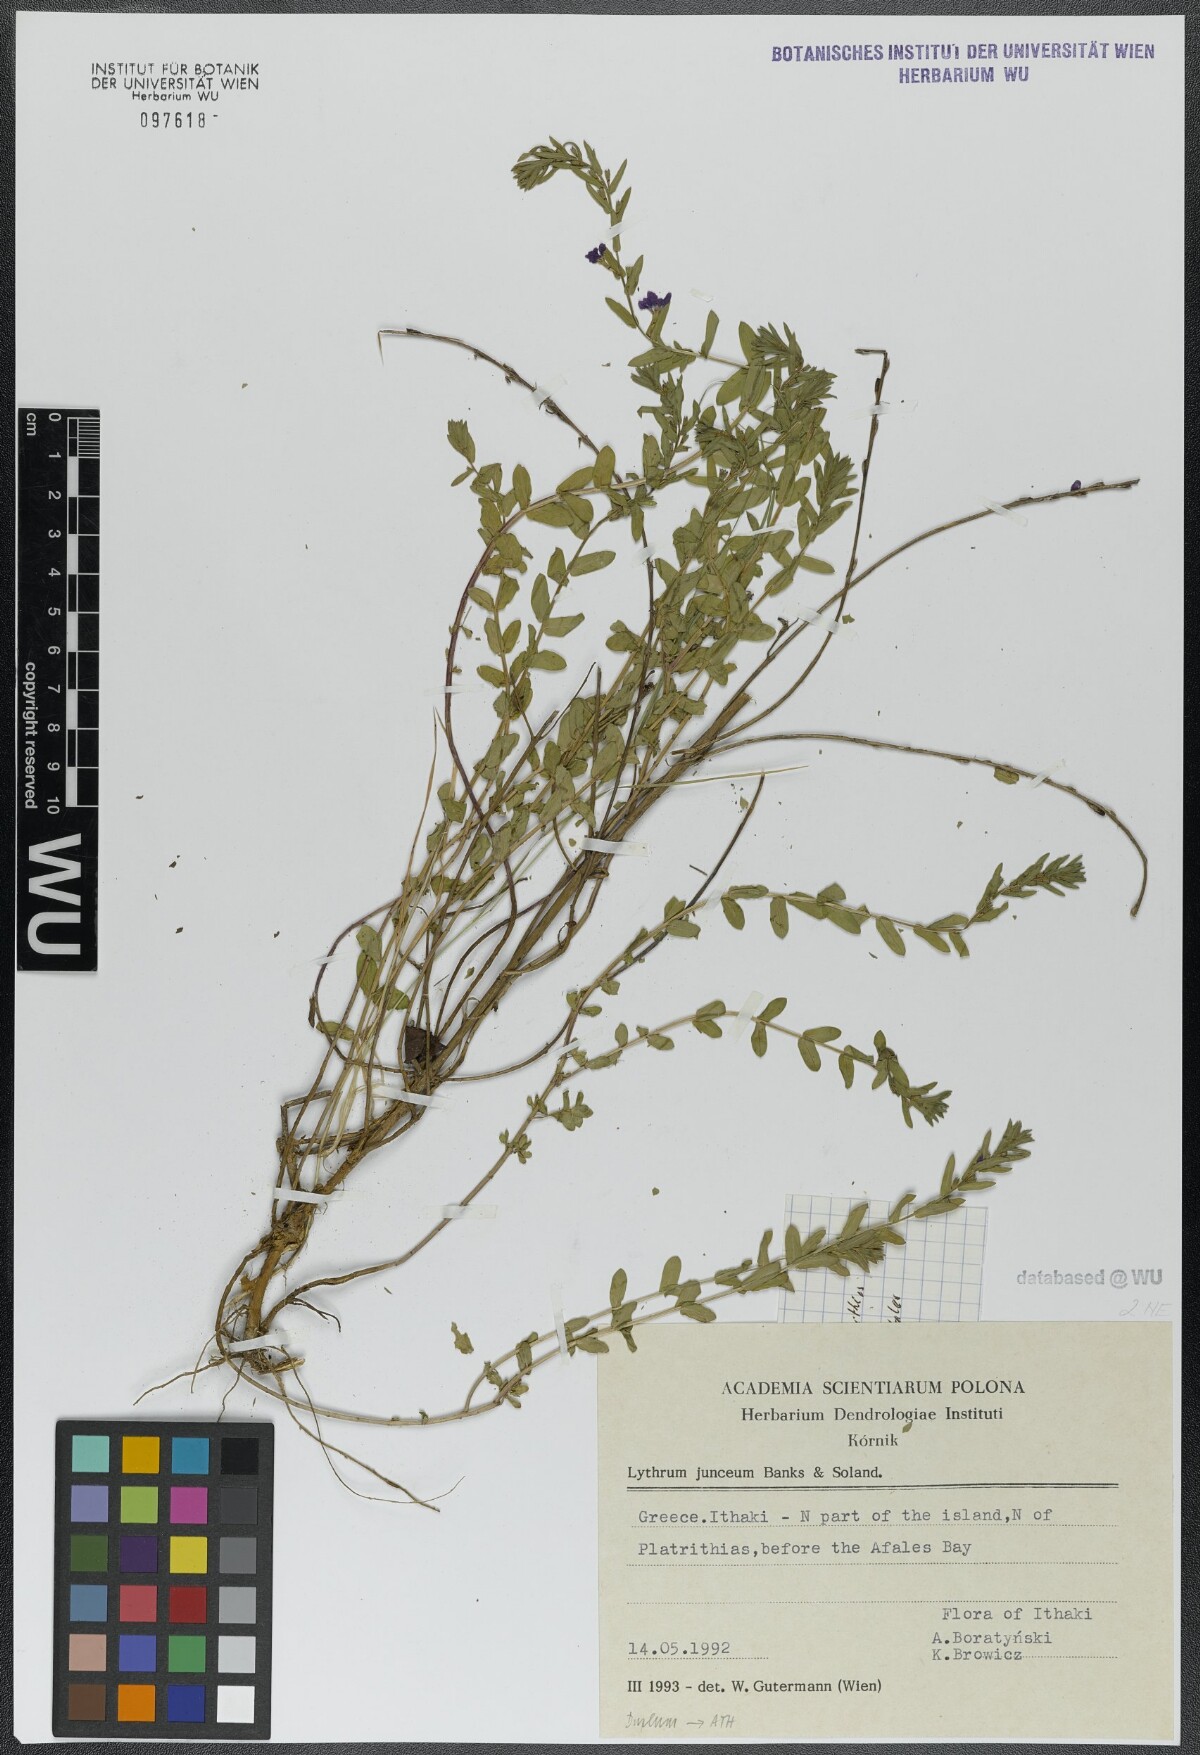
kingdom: Plantae
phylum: Tracheophyta
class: Magnoliopsida
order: Myrtales
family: Lythraceae
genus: Lythrum
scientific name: Lythrum junceum
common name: False grass-poly
